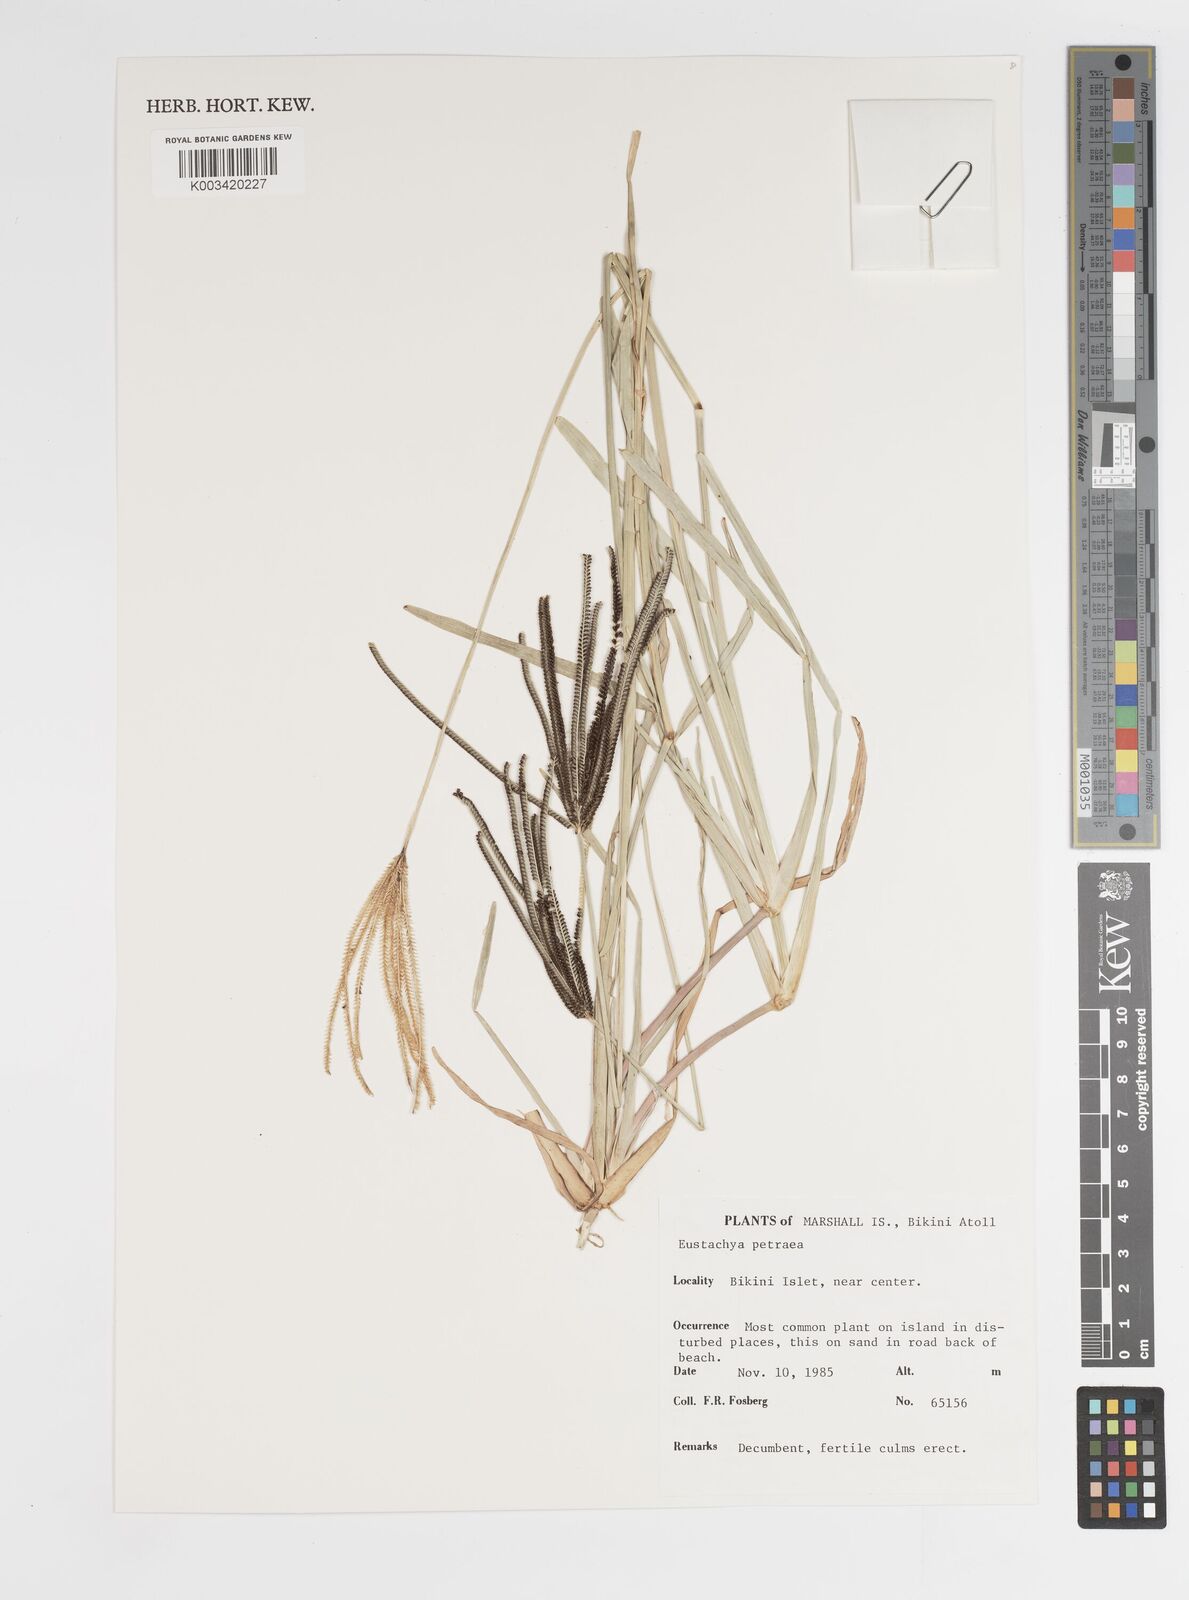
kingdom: Plantae
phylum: Tracheophyta
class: Liliopsida
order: Poales
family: Poaceae
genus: Eustachys
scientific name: Eustachys petraea
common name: Pinewoods fingergrass
